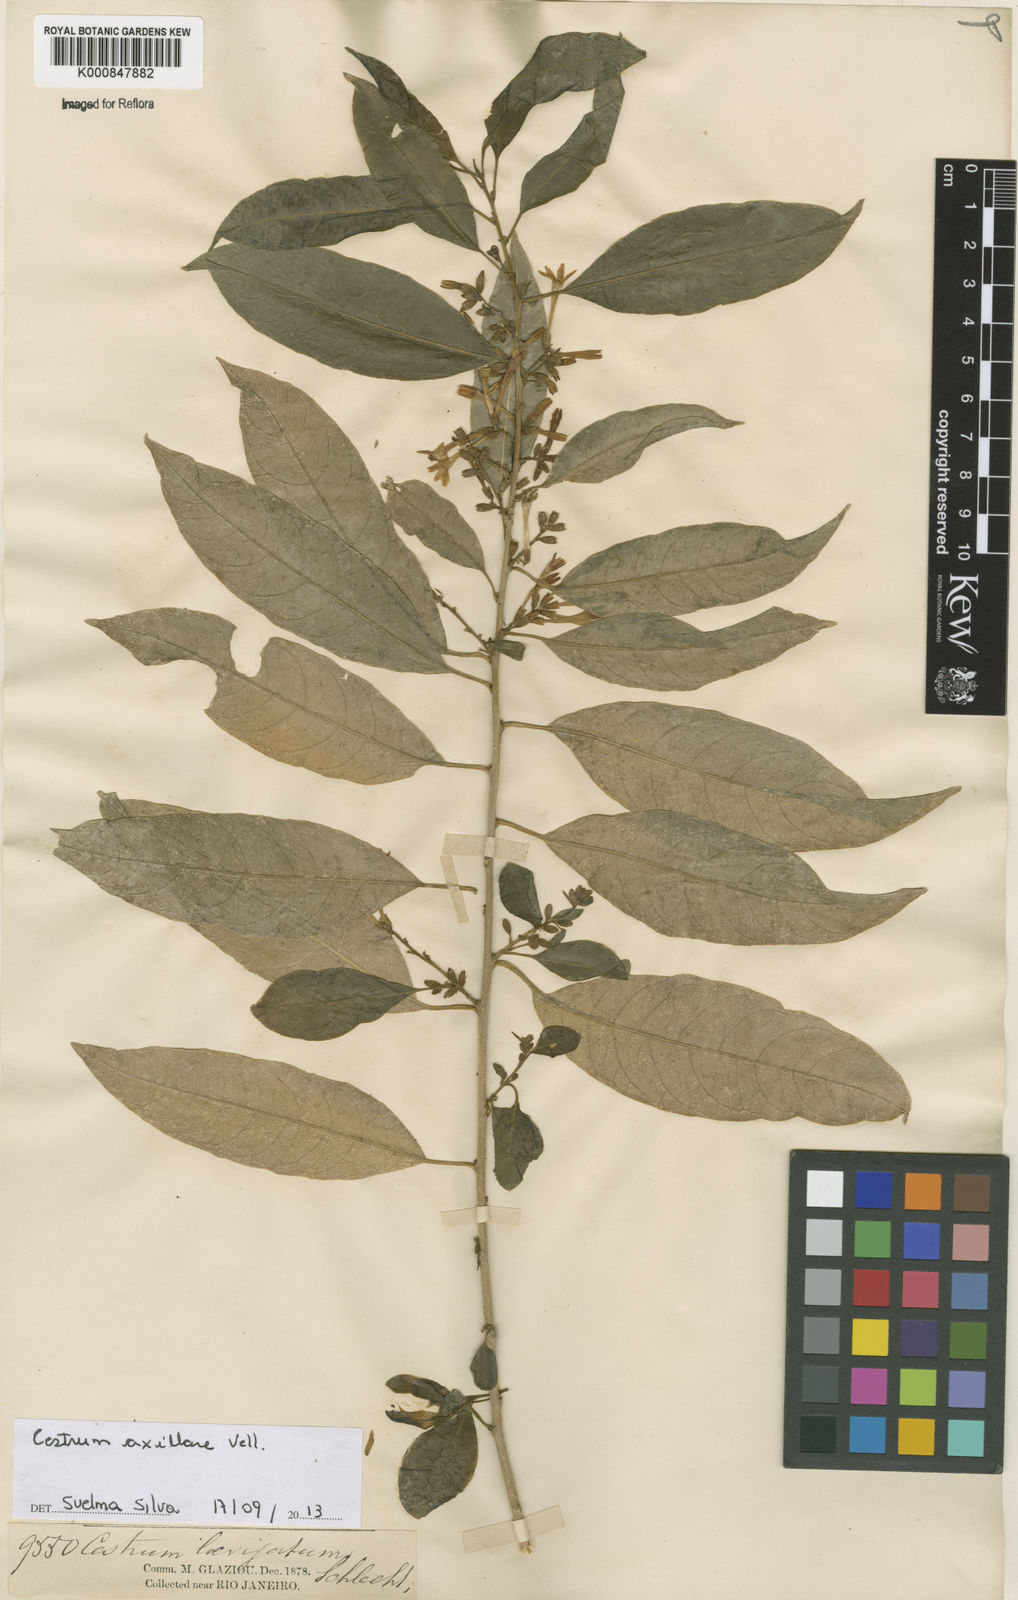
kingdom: Plantae
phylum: Tracheophyta
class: Magnoliopsida
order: Solanales
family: Solanaceae
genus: Cestrum
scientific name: Cestrum laevigatum
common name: Inkberry
